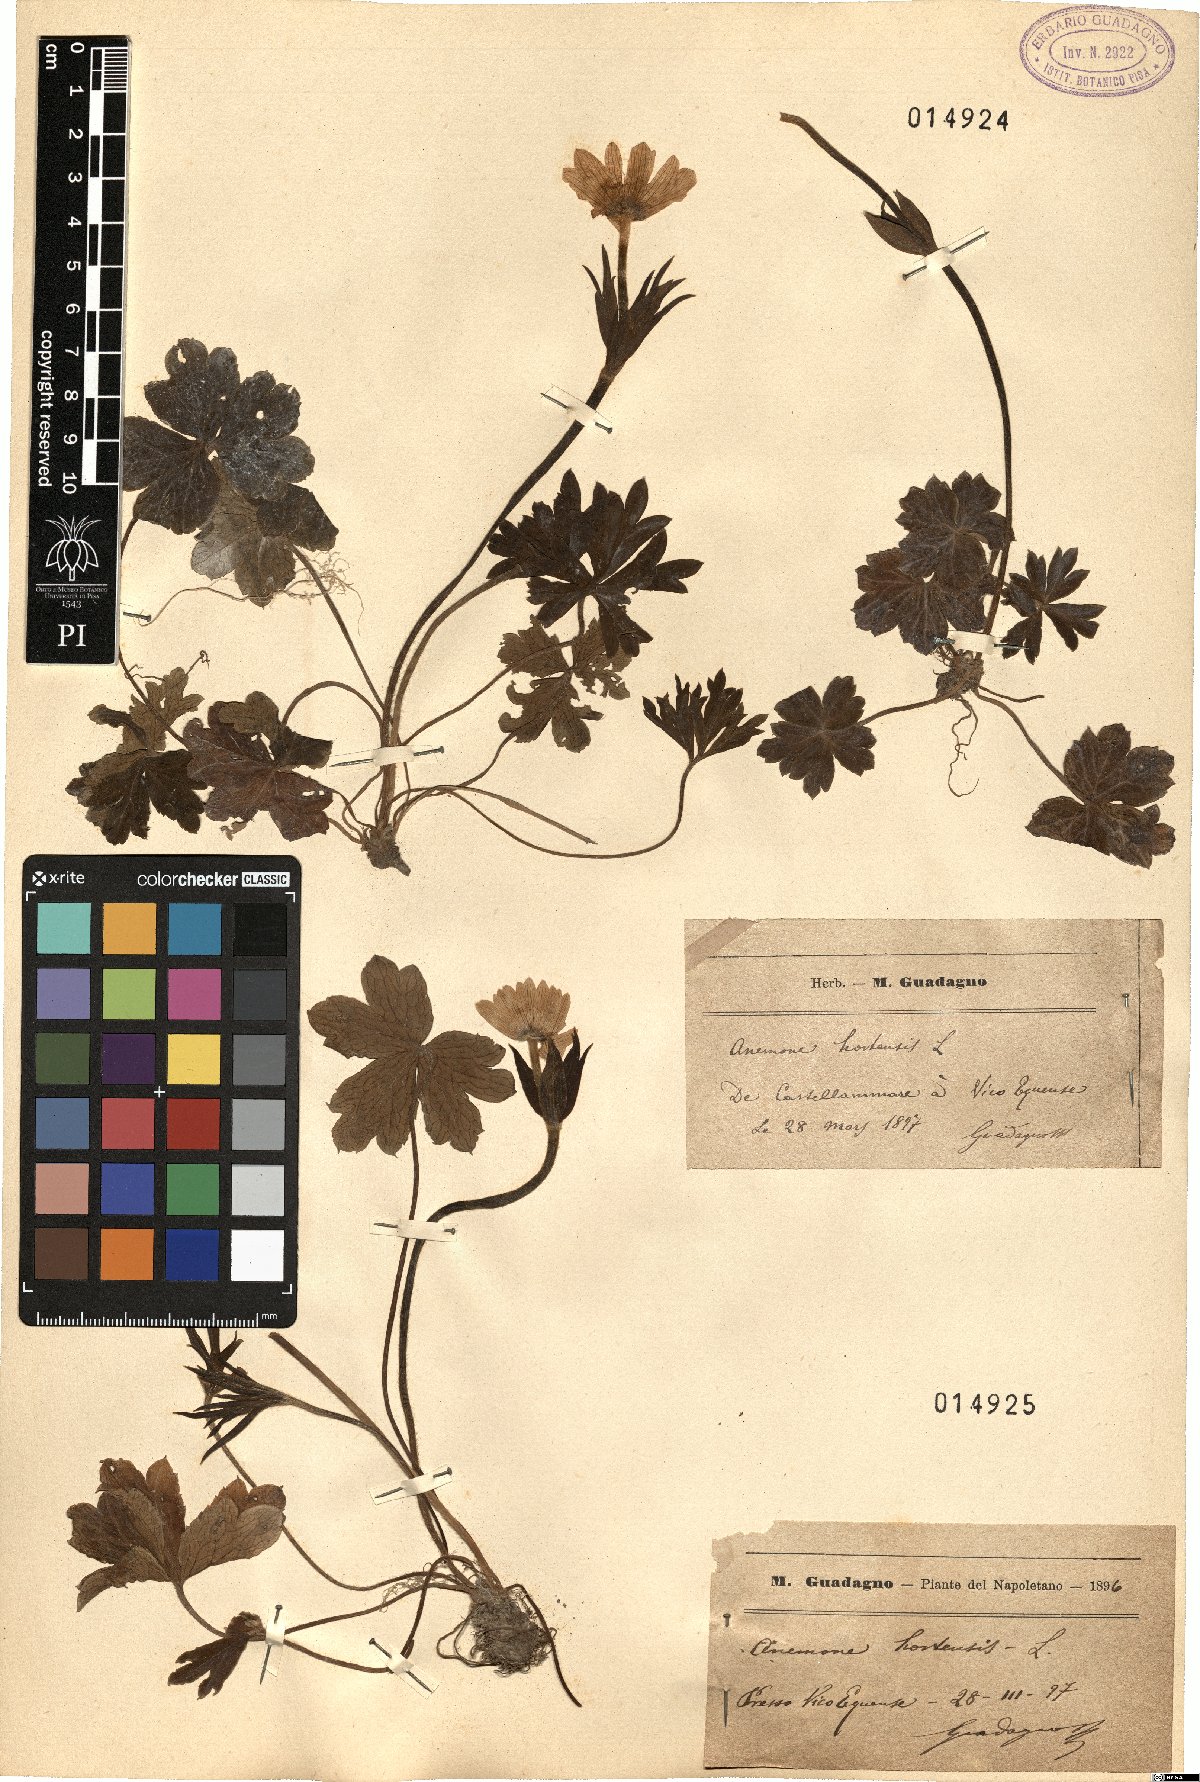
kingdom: Plantae
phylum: Tracheophyta
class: Magnoliopsida
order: Ranunculales
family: Ranunculaceae
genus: Anemone
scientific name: Anemone hortensis
